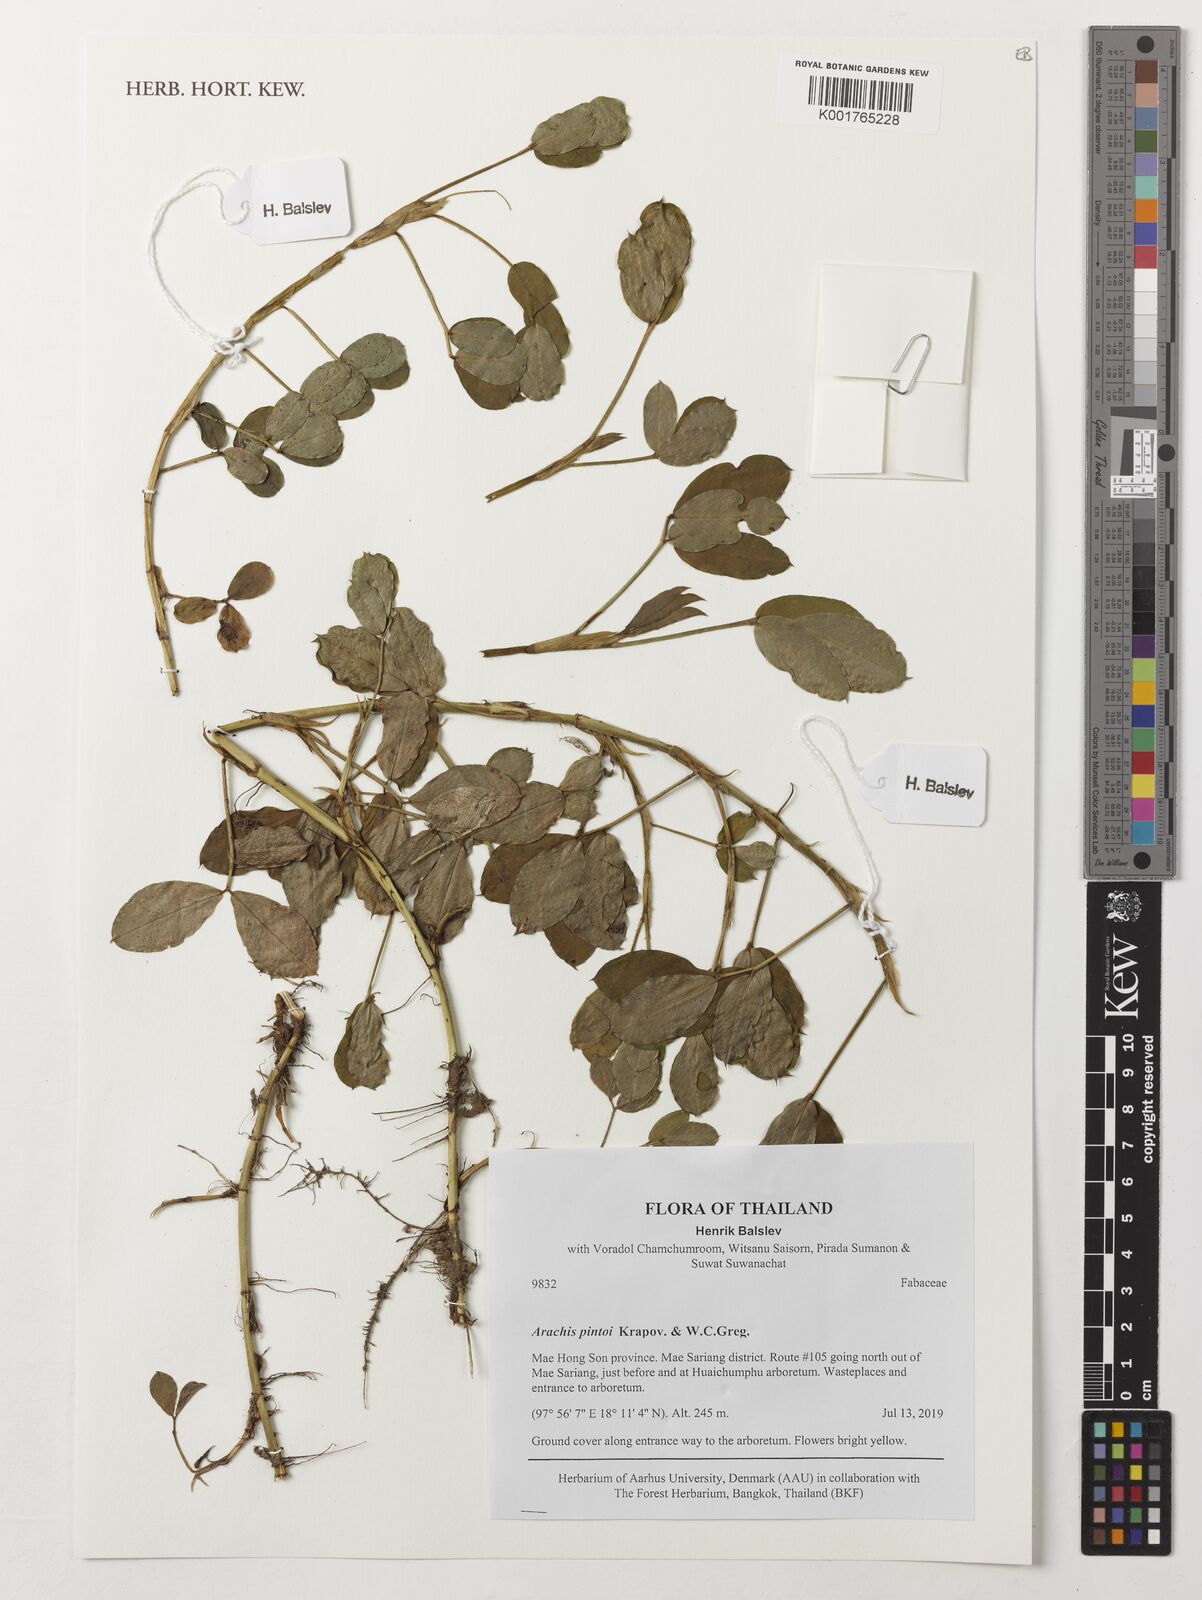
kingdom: Plantae
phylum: Tracheophyta
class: Magnoliopsida
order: Fabales
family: Fabaceae
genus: Arachis
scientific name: Arachis pintoi
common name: Pinto peanut
